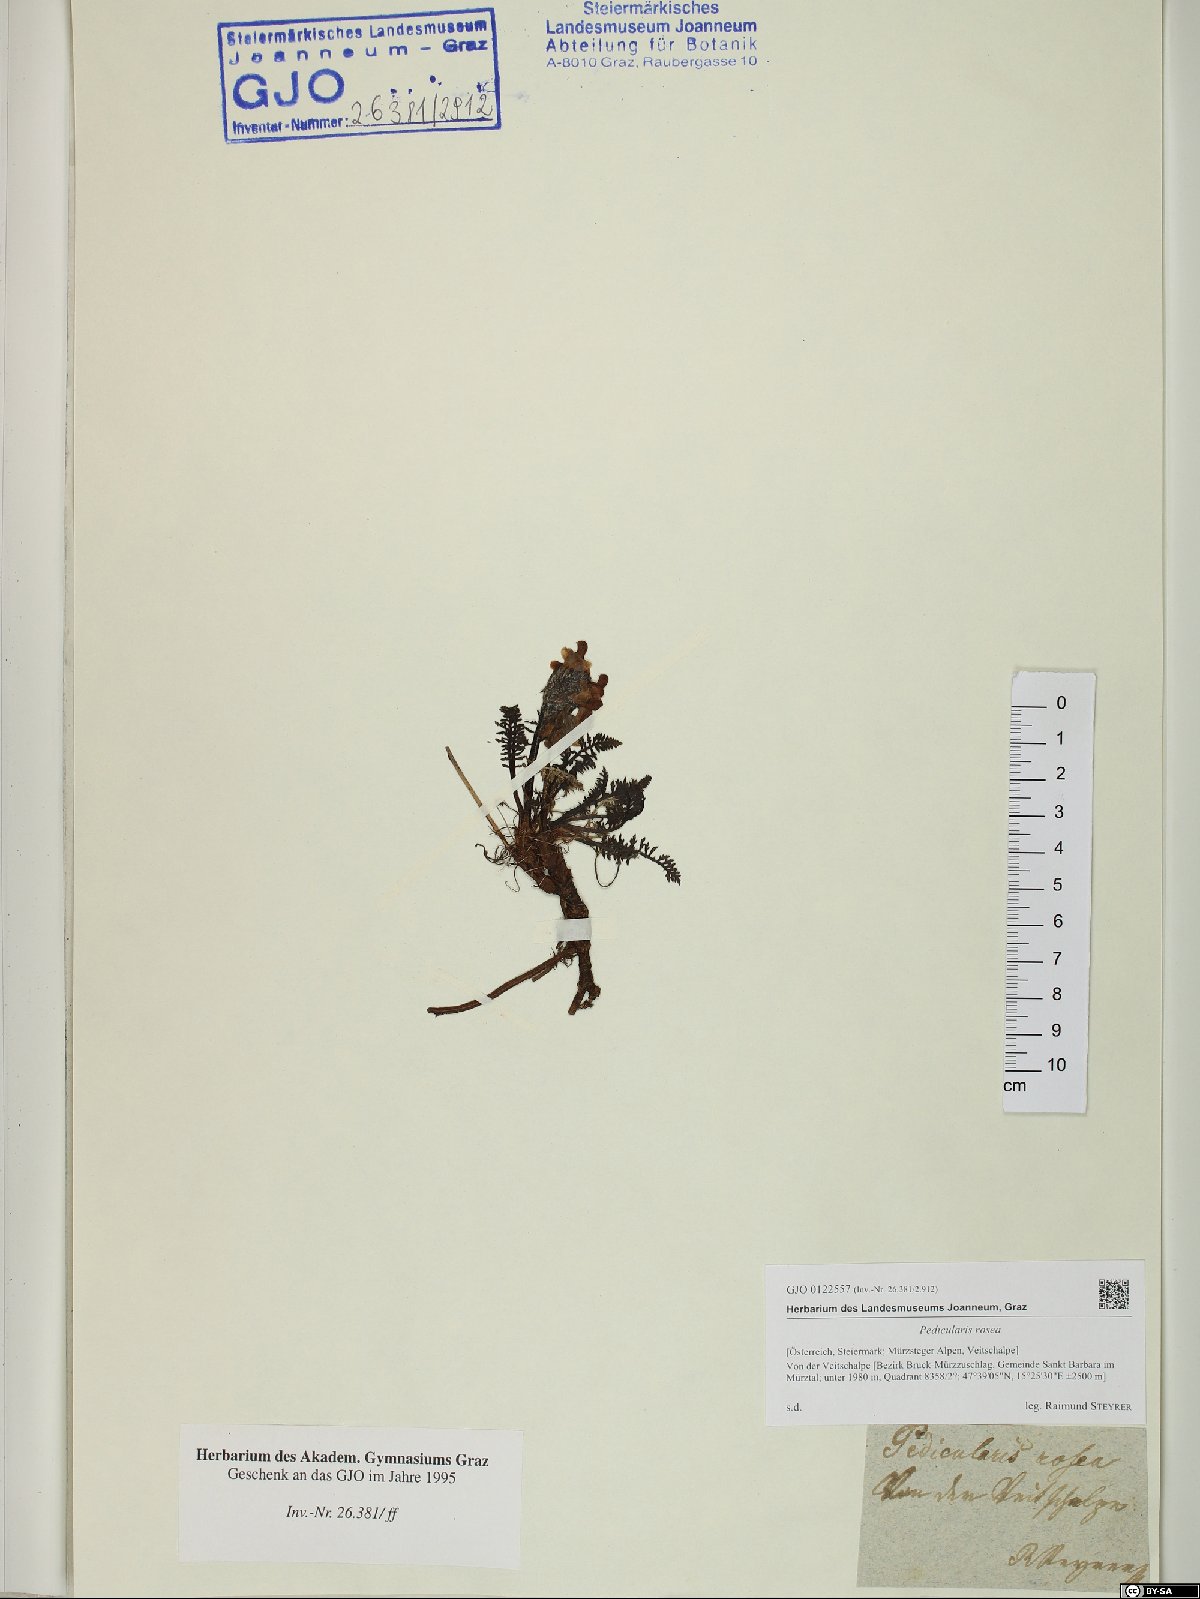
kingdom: Plantae
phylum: Tracheophyta
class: Magnoliopsida
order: Lamiales
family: Orobanchaceae
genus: Pedicularis
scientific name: Pedicularis rosea
